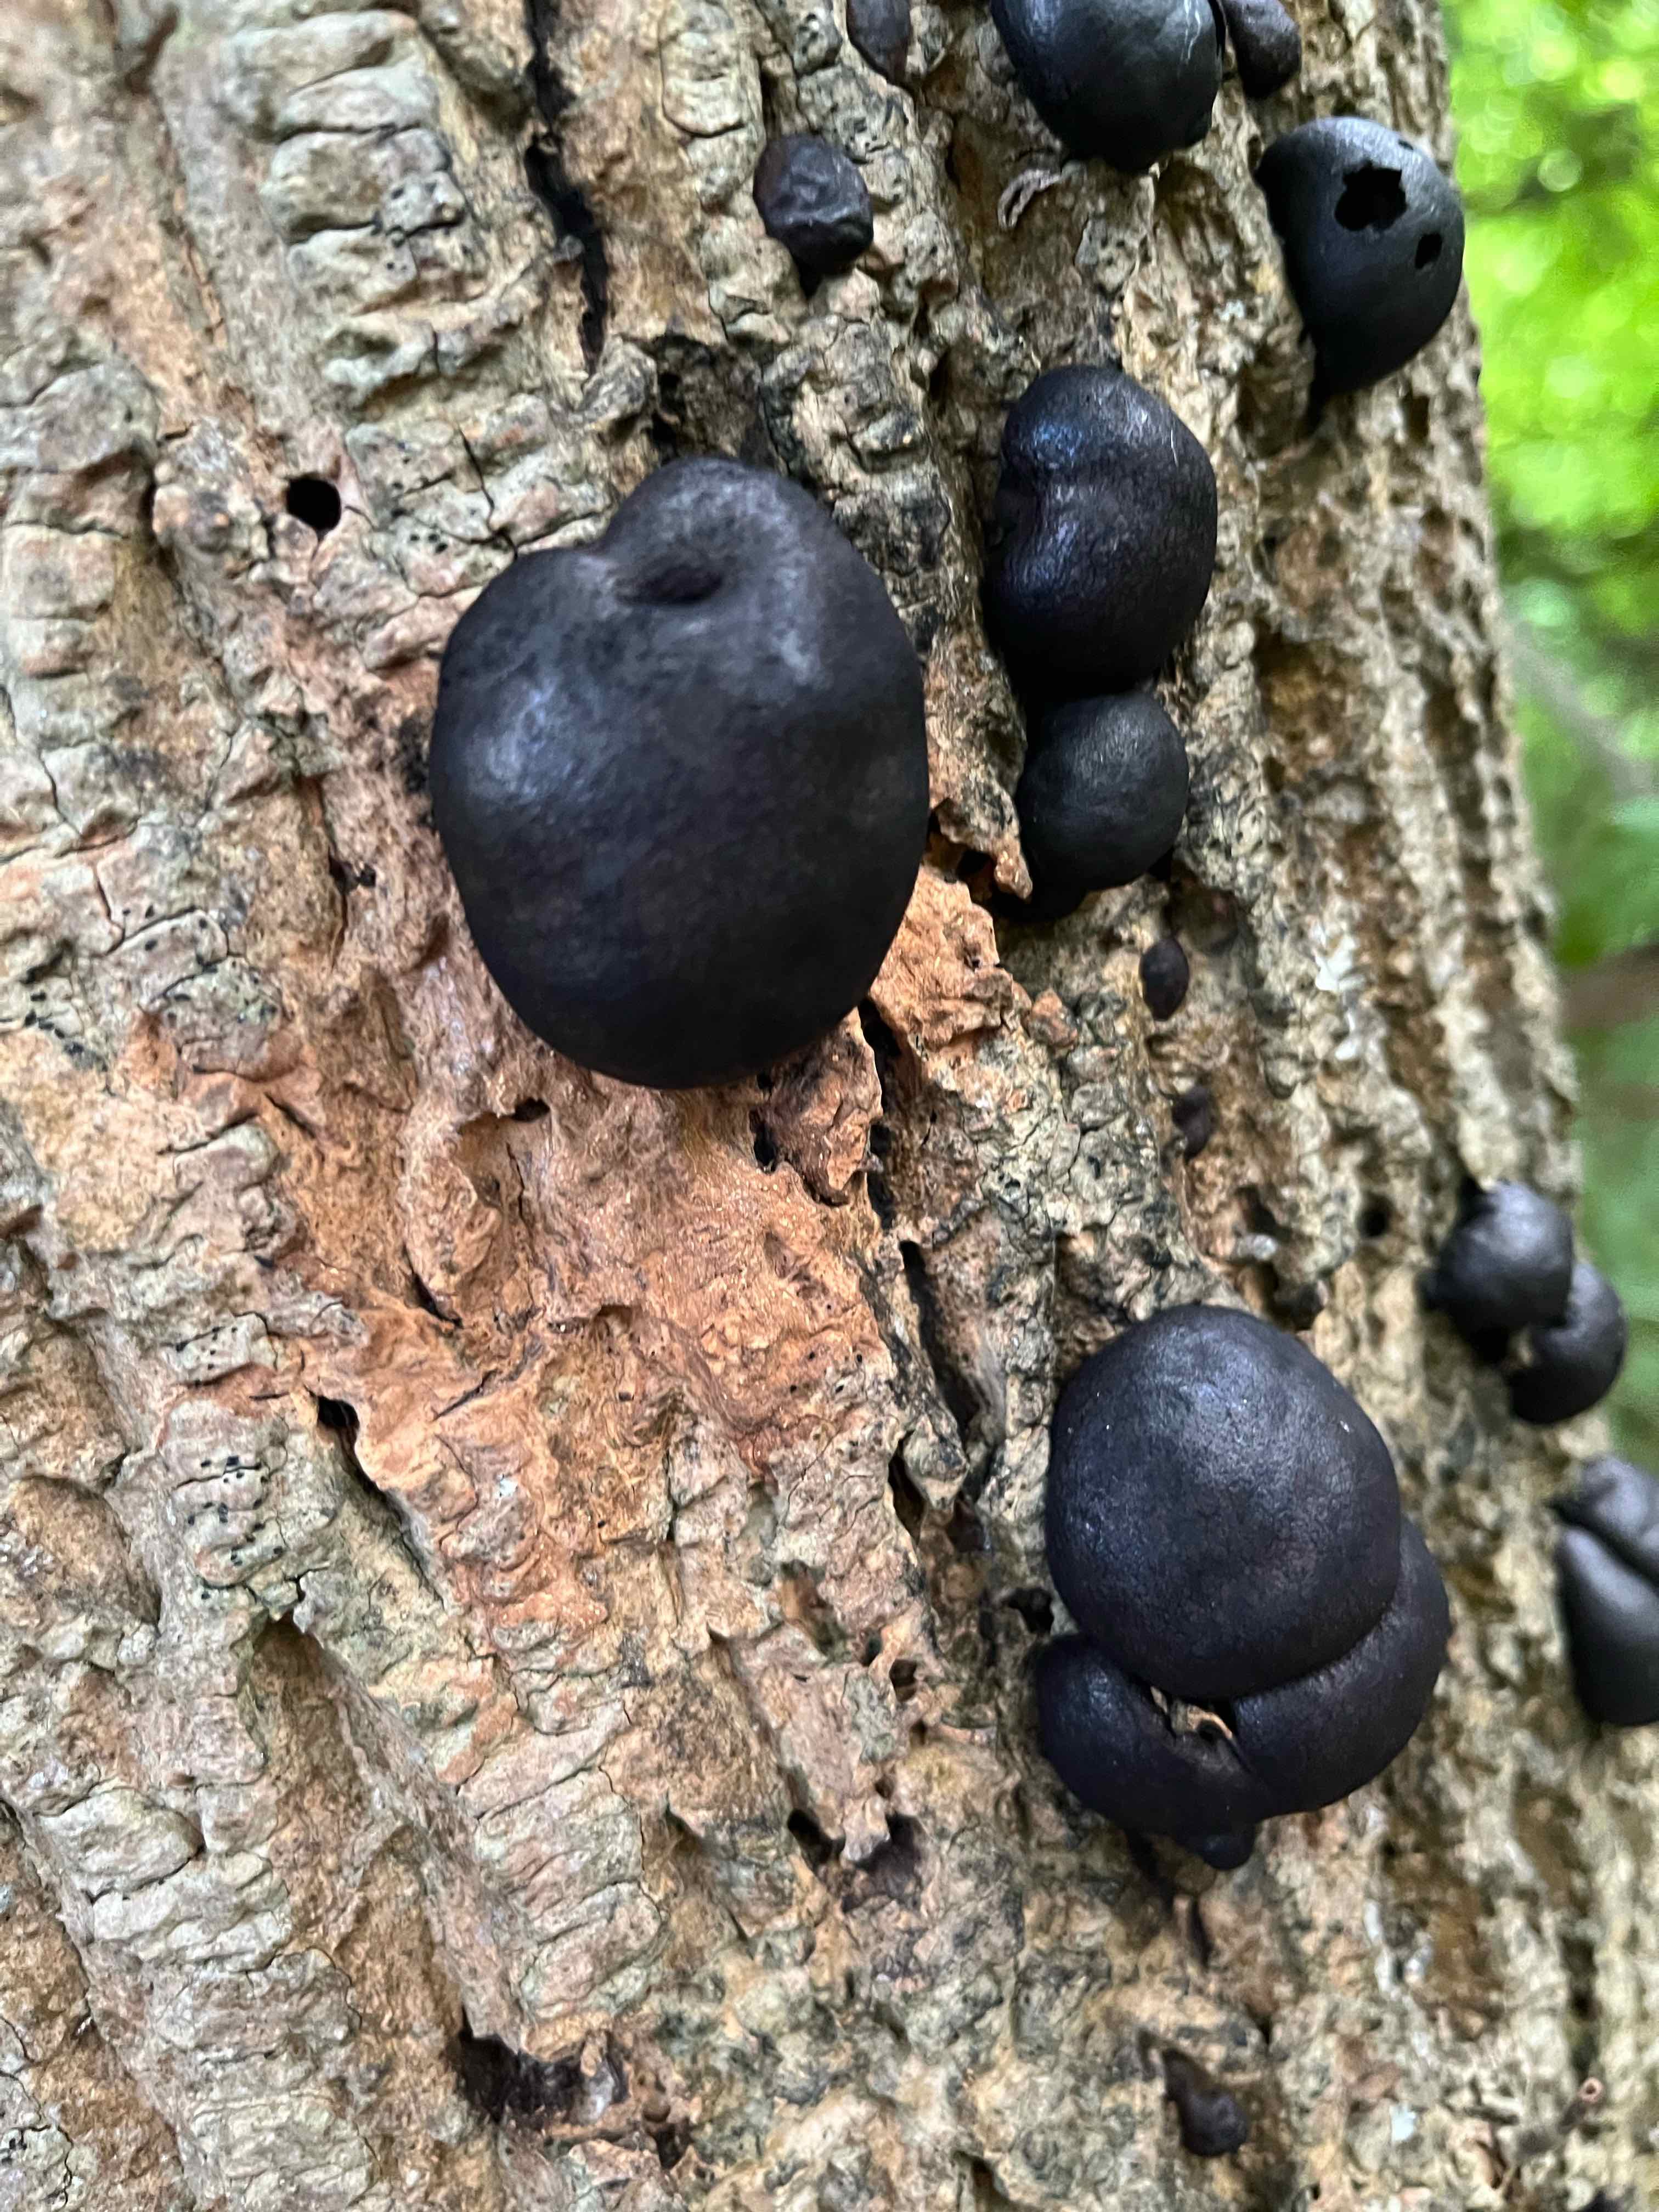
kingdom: Fungi
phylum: Ascomycota
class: Sordariomycetes
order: Xylariales
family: Hypoxylaceae
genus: Daldinia
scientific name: Daldinia concentrica
